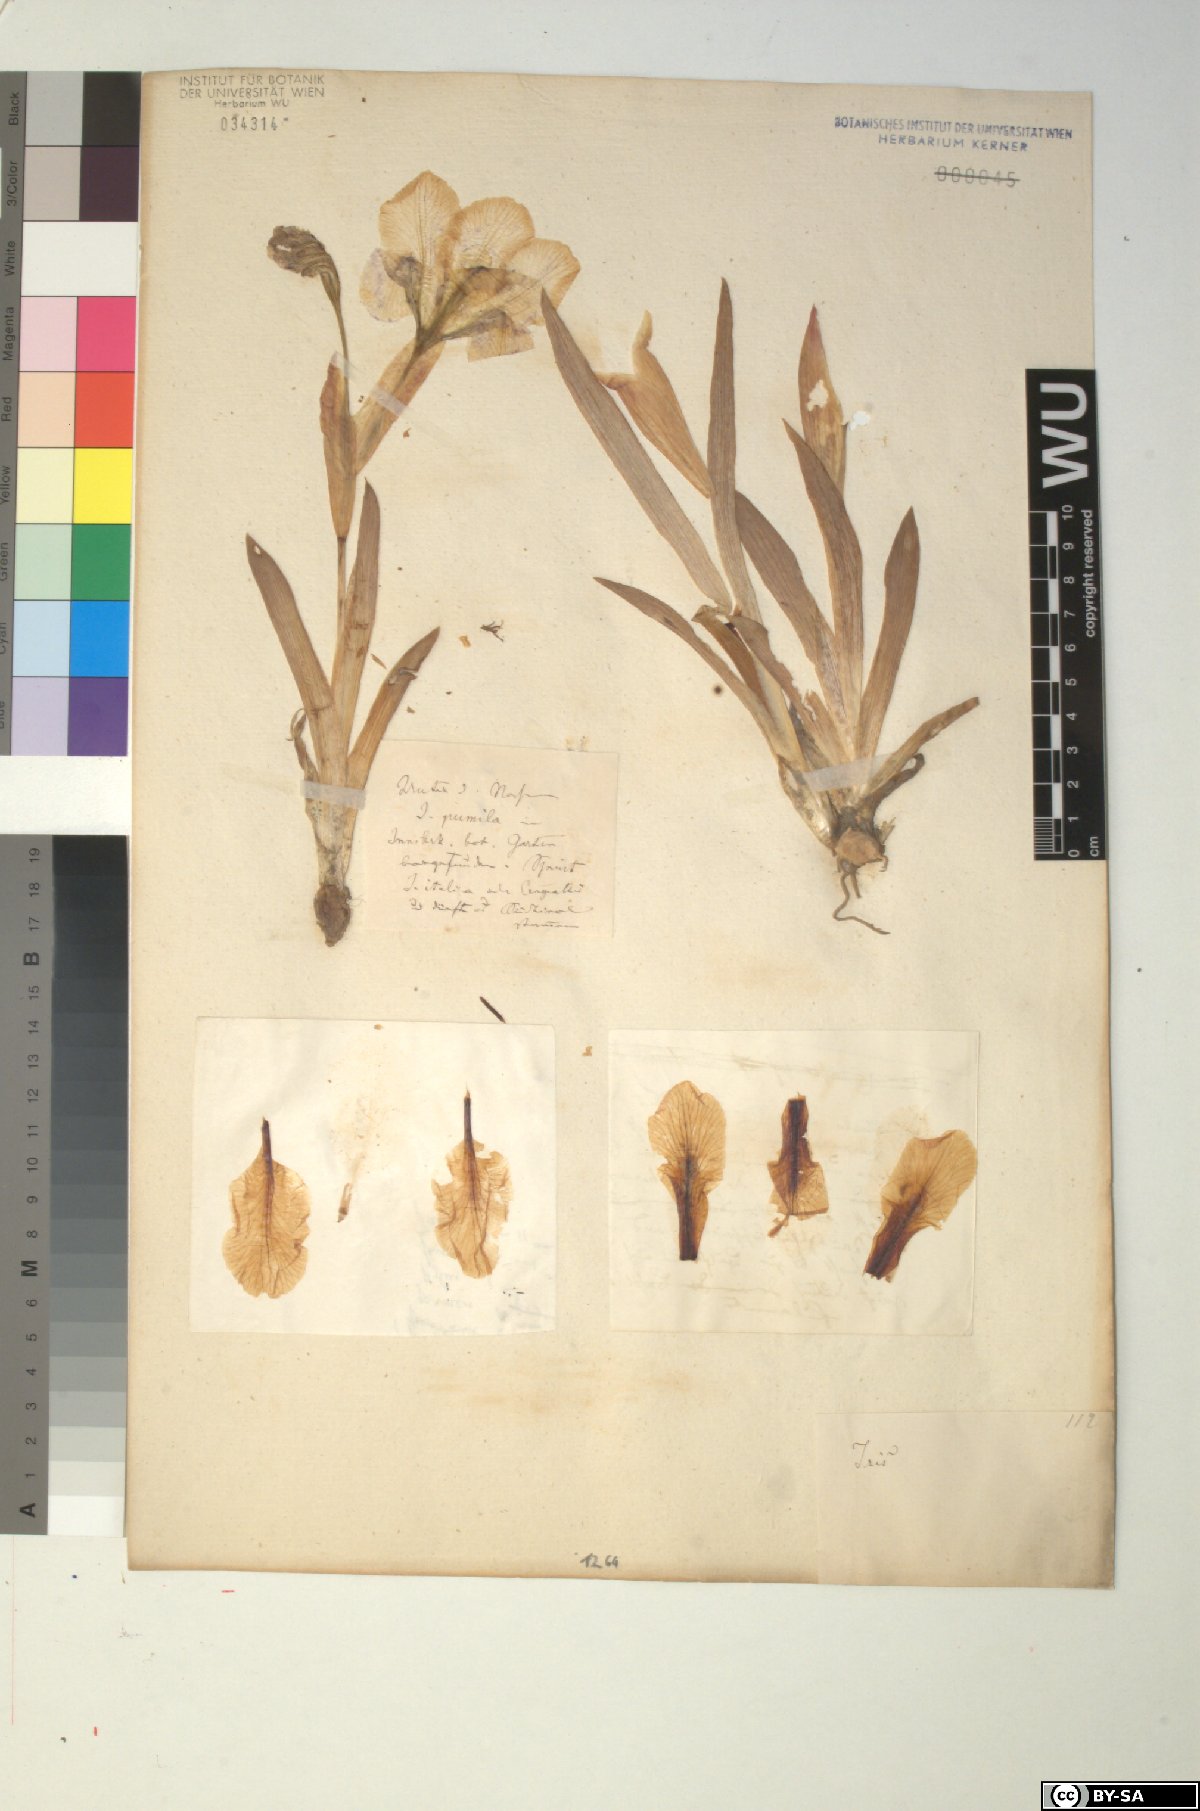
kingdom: Plantae
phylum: Tracheophyta
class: Liliopsida
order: Asparagales
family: Iridaceae
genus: Iris
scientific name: Iris pumila
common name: Dwarf iris
